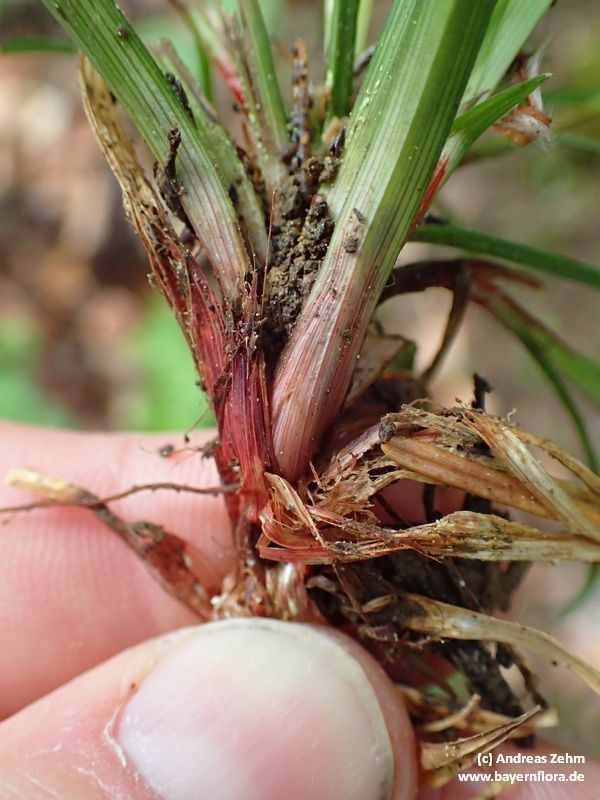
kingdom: Plantae
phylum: Tracheophyta
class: Liliopsida
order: Poales
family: Cyperaceae
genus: Carex
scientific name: Carex digitata
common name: Fingered sedge
